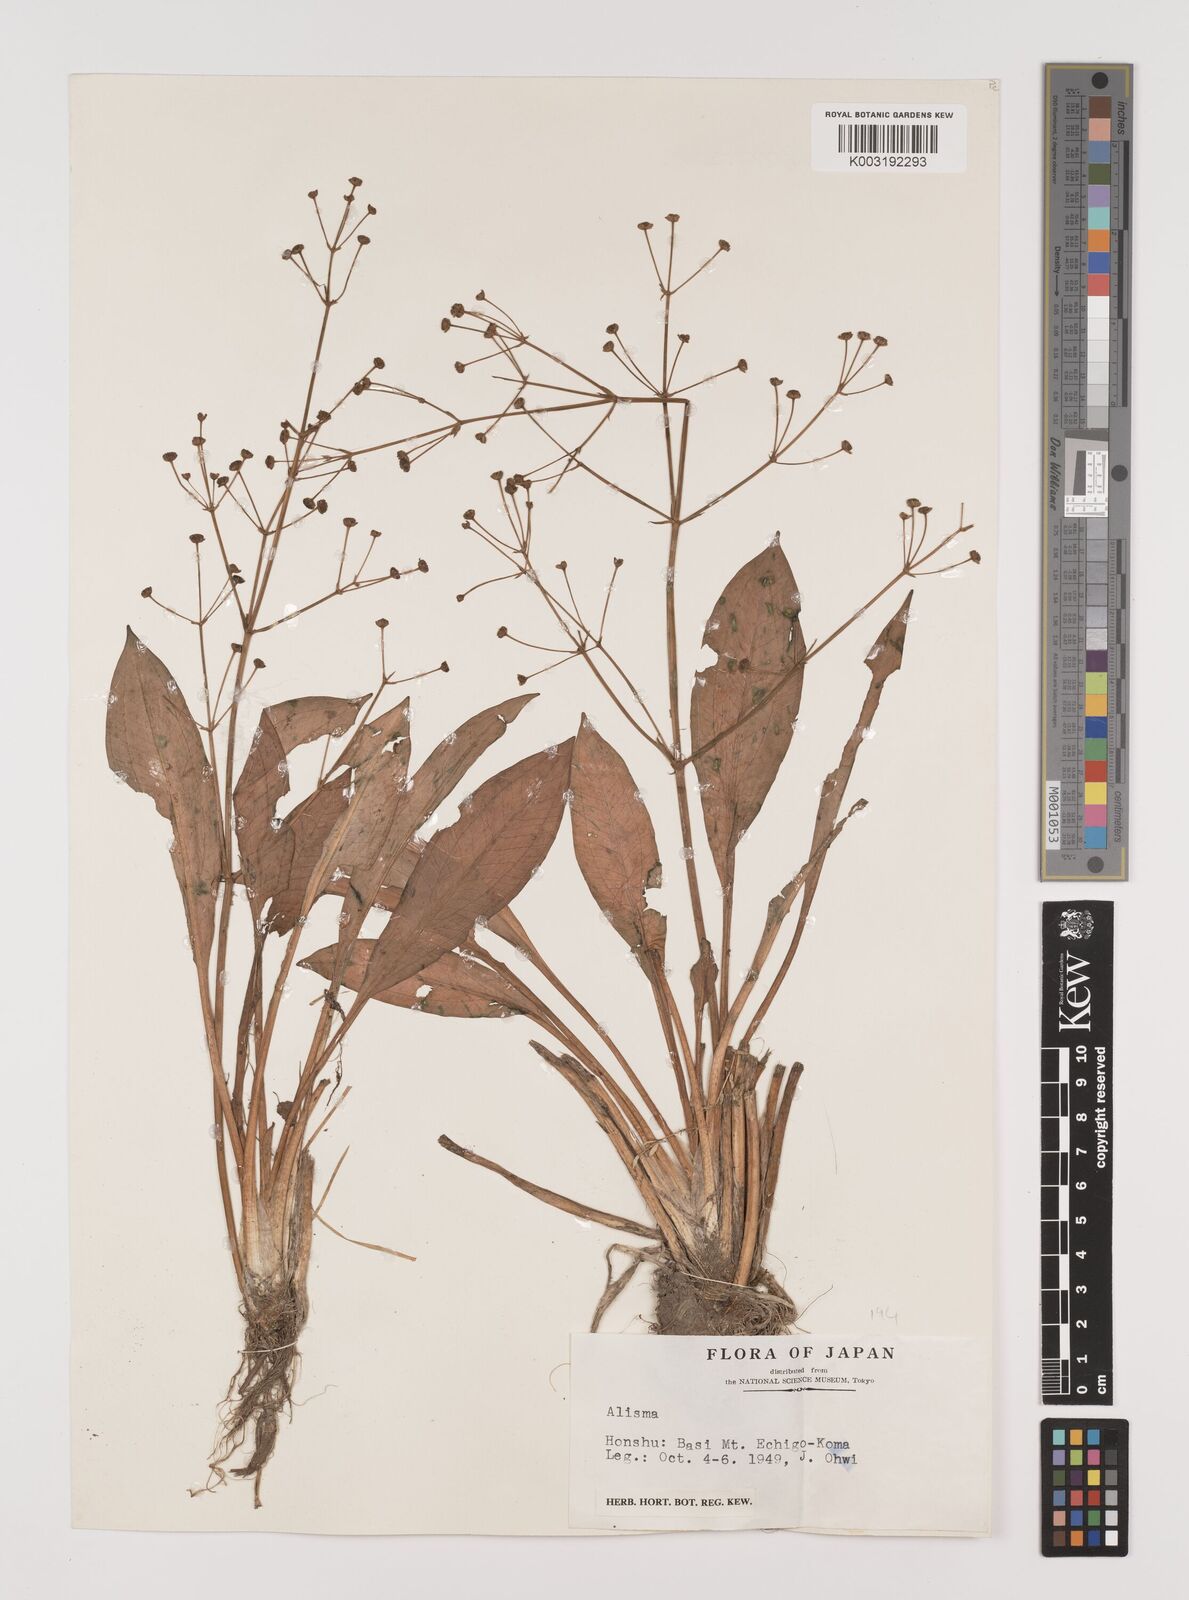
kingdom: Plantae
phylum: Tracheophyta
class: Liliopsida
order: Alismatales
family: Alismataceae
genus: Alisma
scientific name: Alisma plantago-aquatica
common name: Water-plantain
